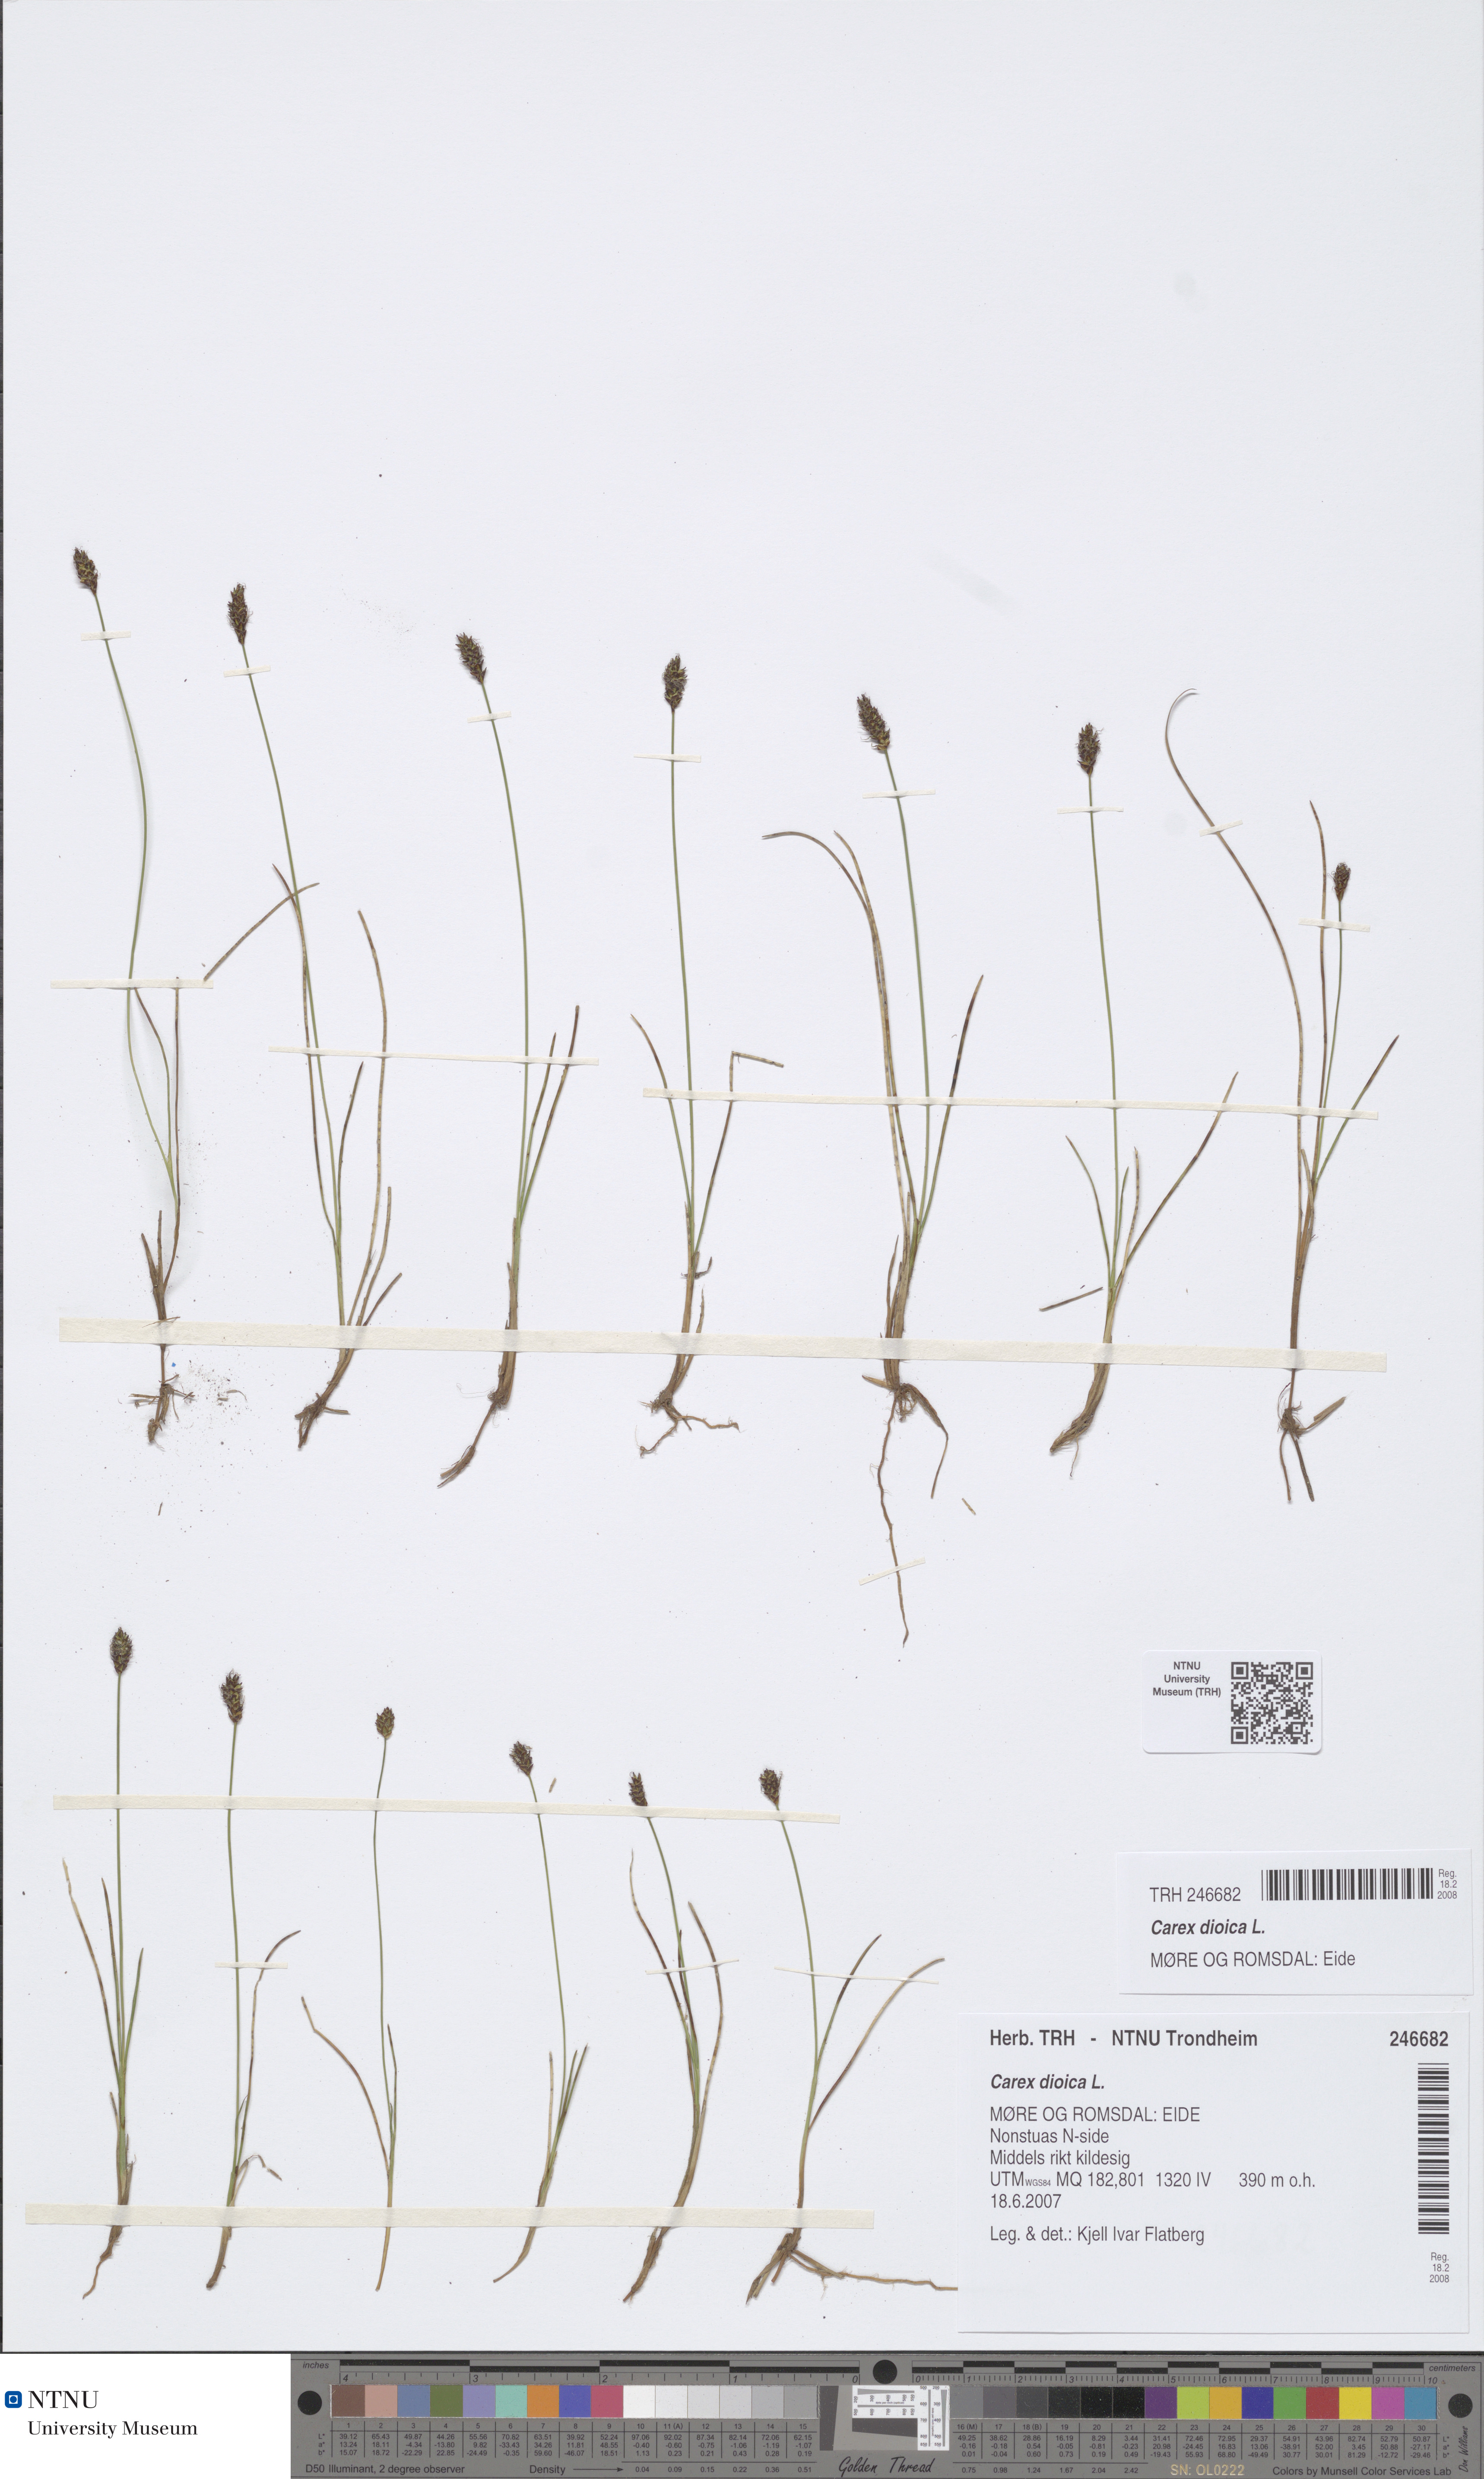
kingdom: Plantae
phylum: Tracheophyta
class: Liliopsida
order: Poales
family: Cyperaceae
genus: Carex
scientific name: Carex dioica
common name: Dioecious sedge
